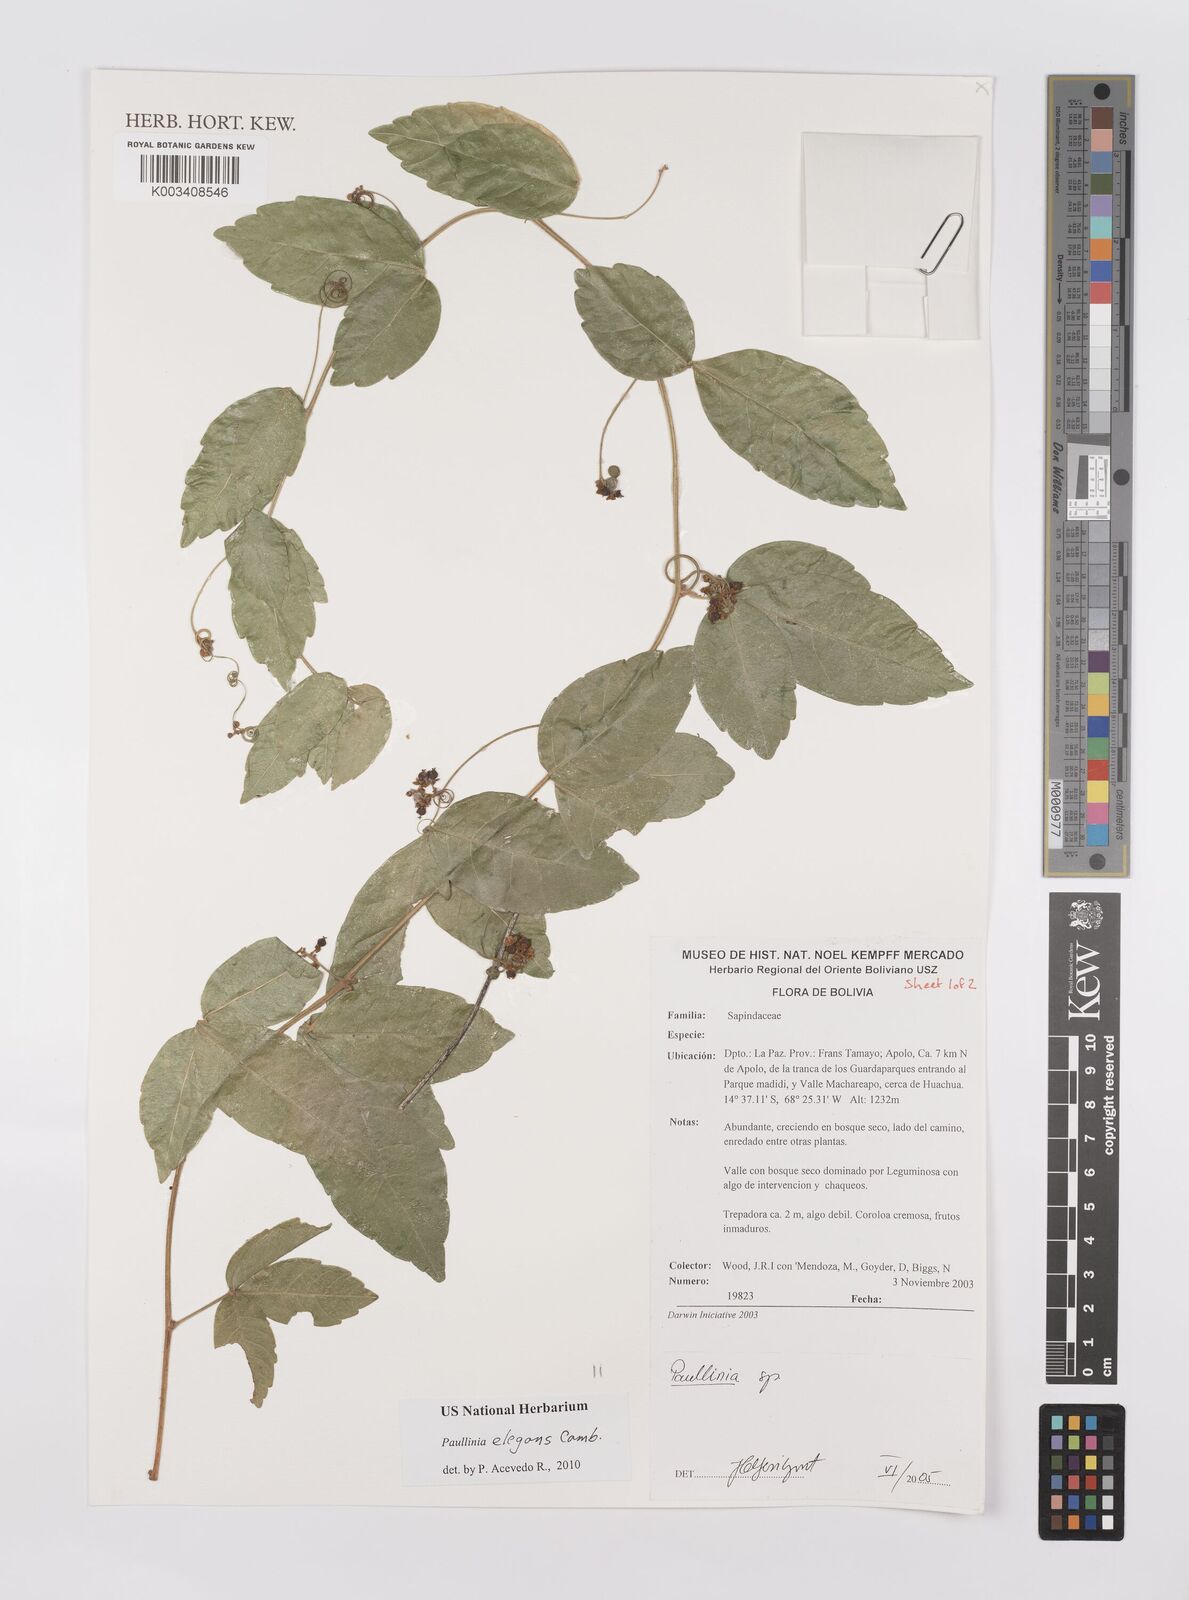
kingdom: Plantae
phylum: Tracheophyta
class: Magnoliopsida
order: Sapindales
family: Sapindaceae
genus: Paullinia
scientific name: Paullinia elegans
